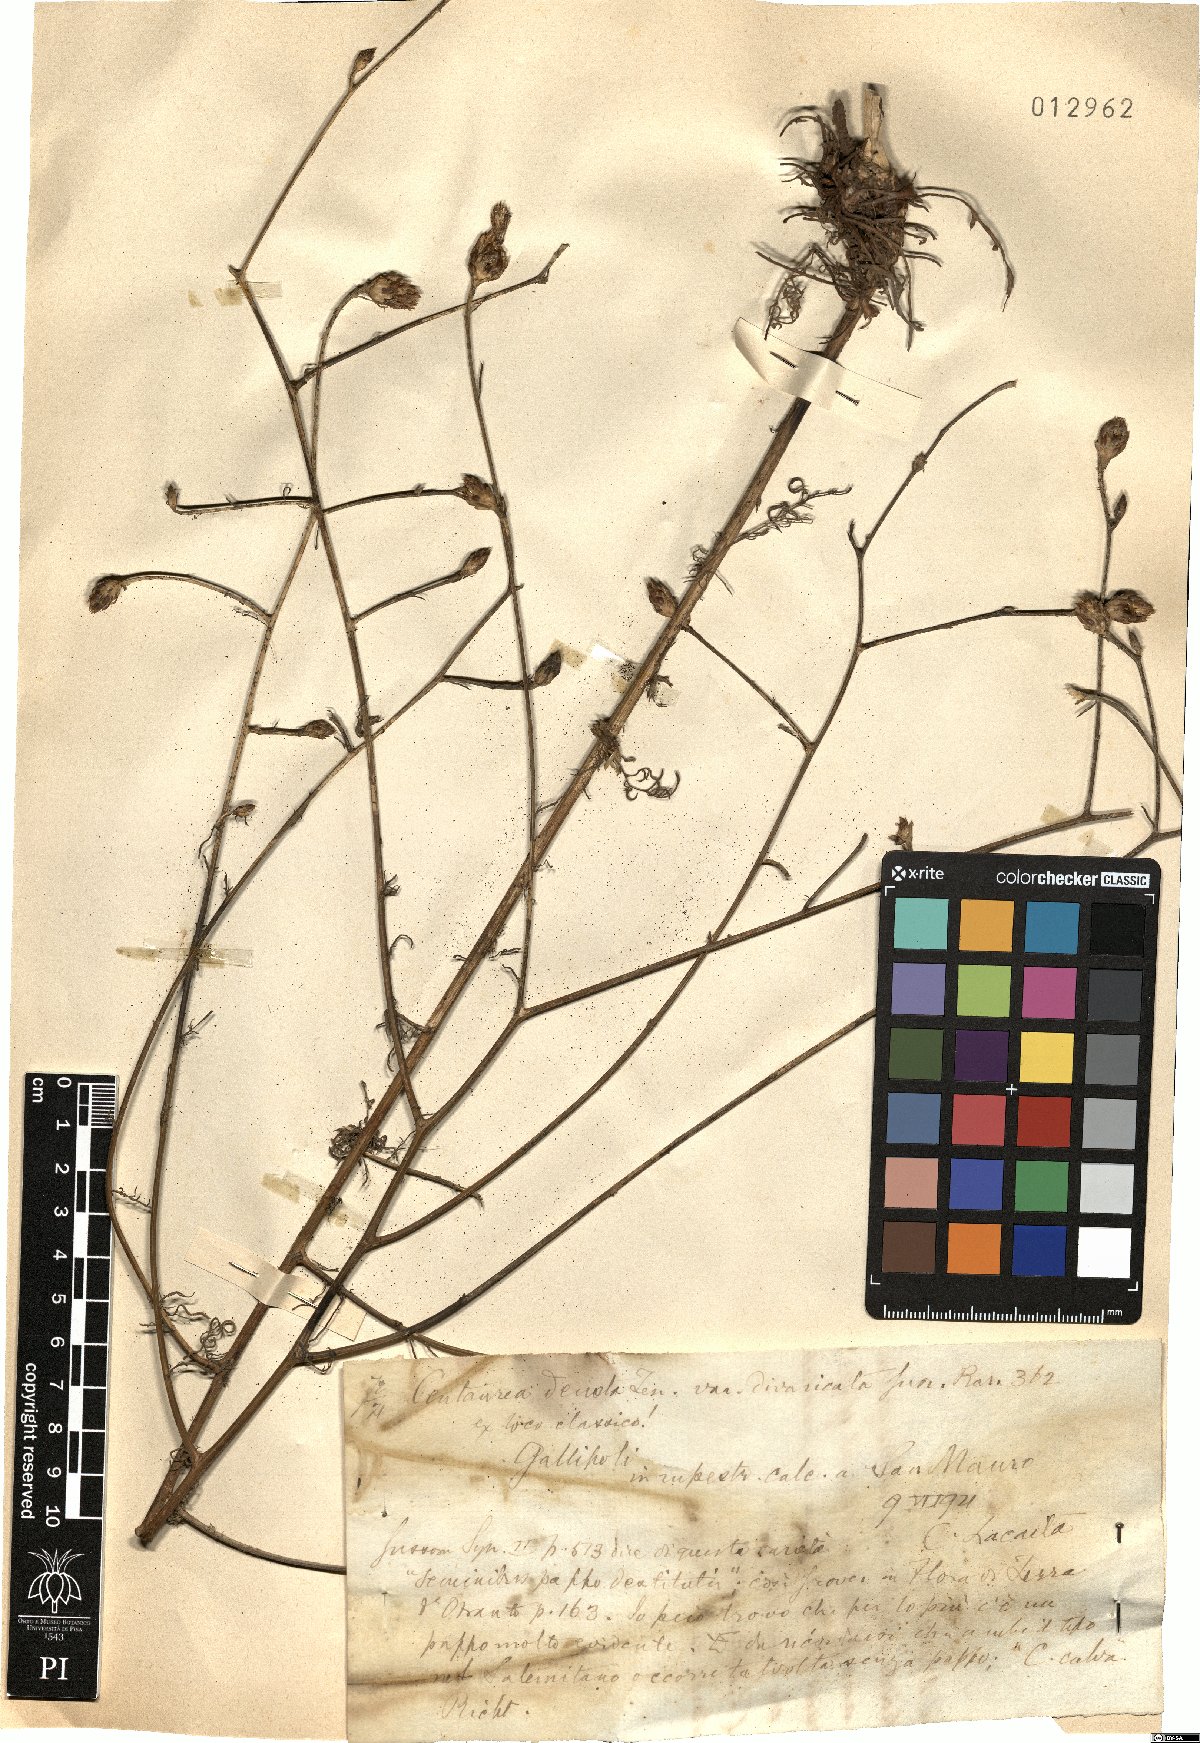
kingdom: Plantae
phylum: Tracheophyta
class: Magnoliopsida
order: Asterales
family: Asteraceae
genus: Centaurea
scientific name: Centaurea deusta
